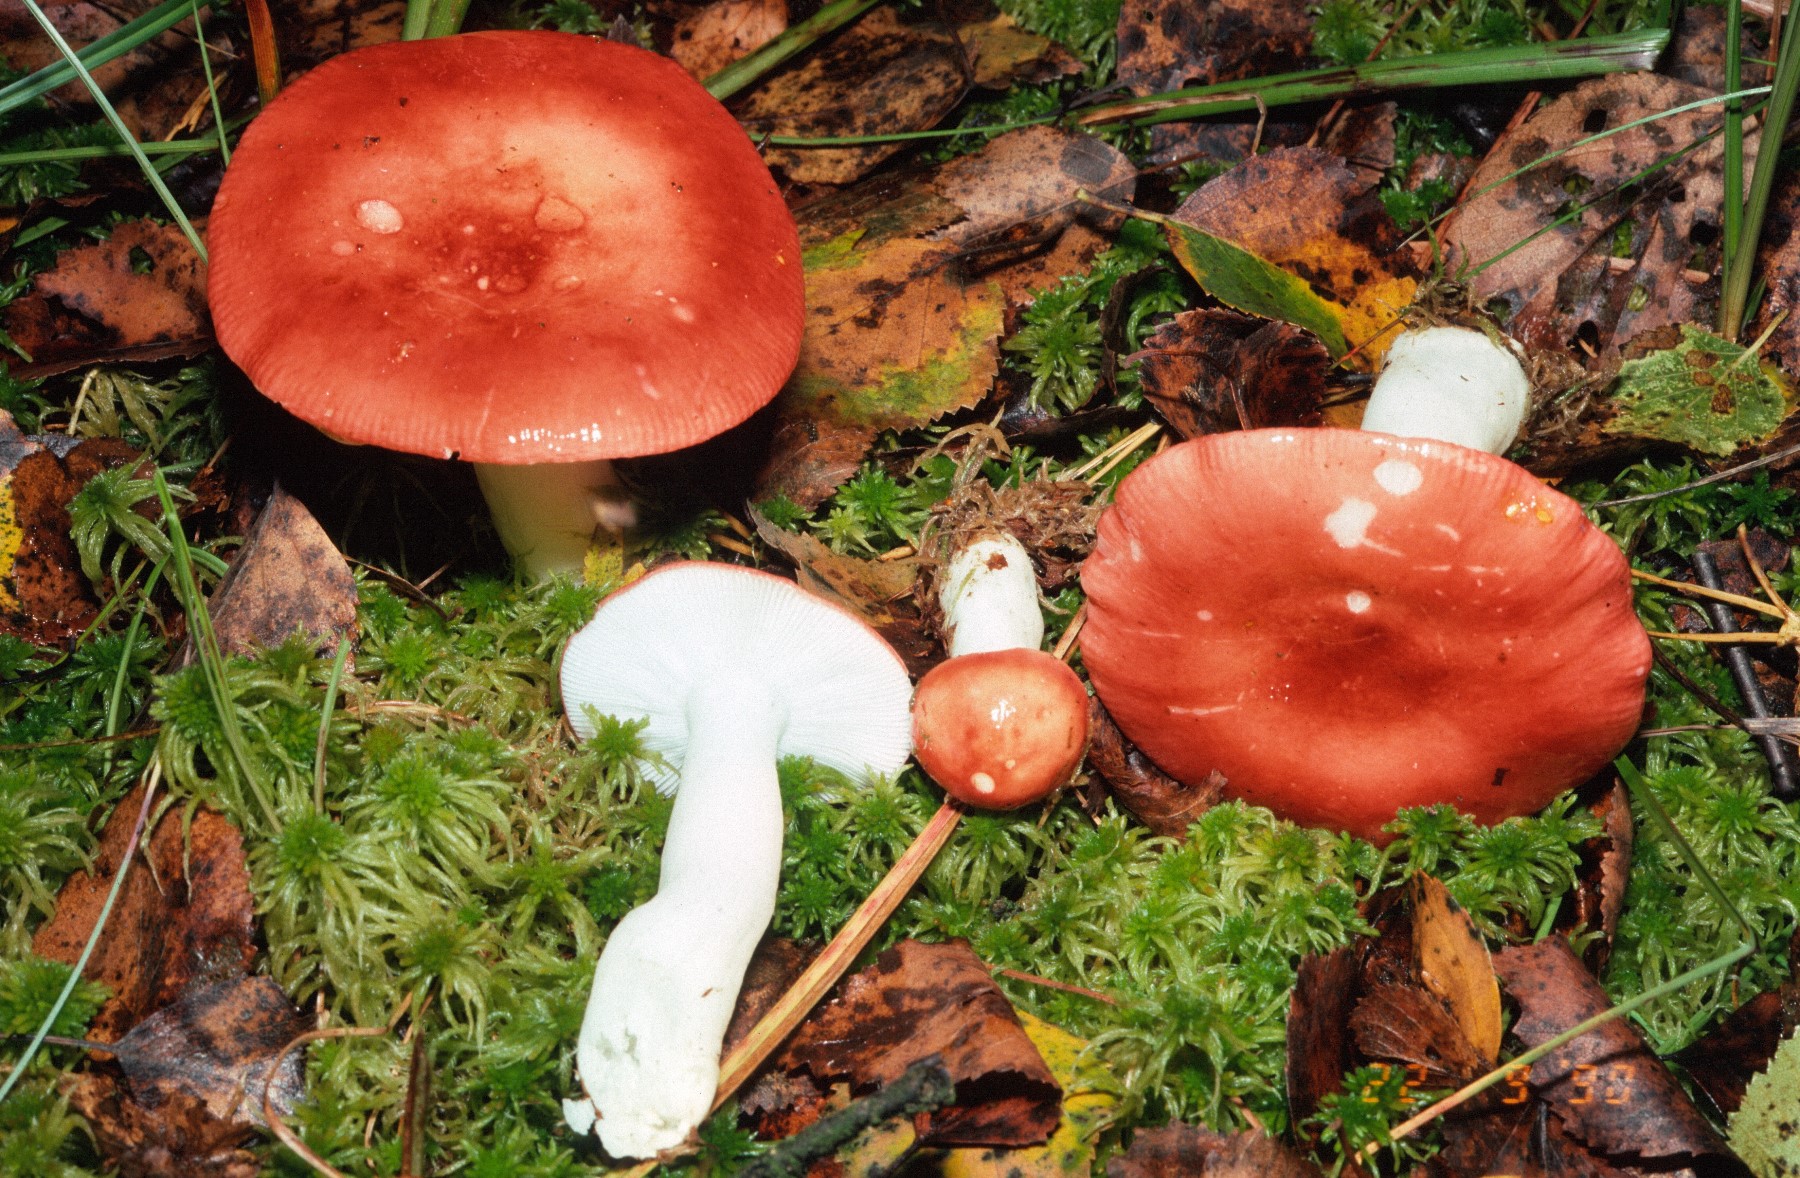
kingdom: Fungi
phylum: Basidiomycota
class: Agaricomycetes
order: Russulales
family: Russulaceae
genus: Russula
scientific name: Russula emetica
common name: stor gift-skørhat
